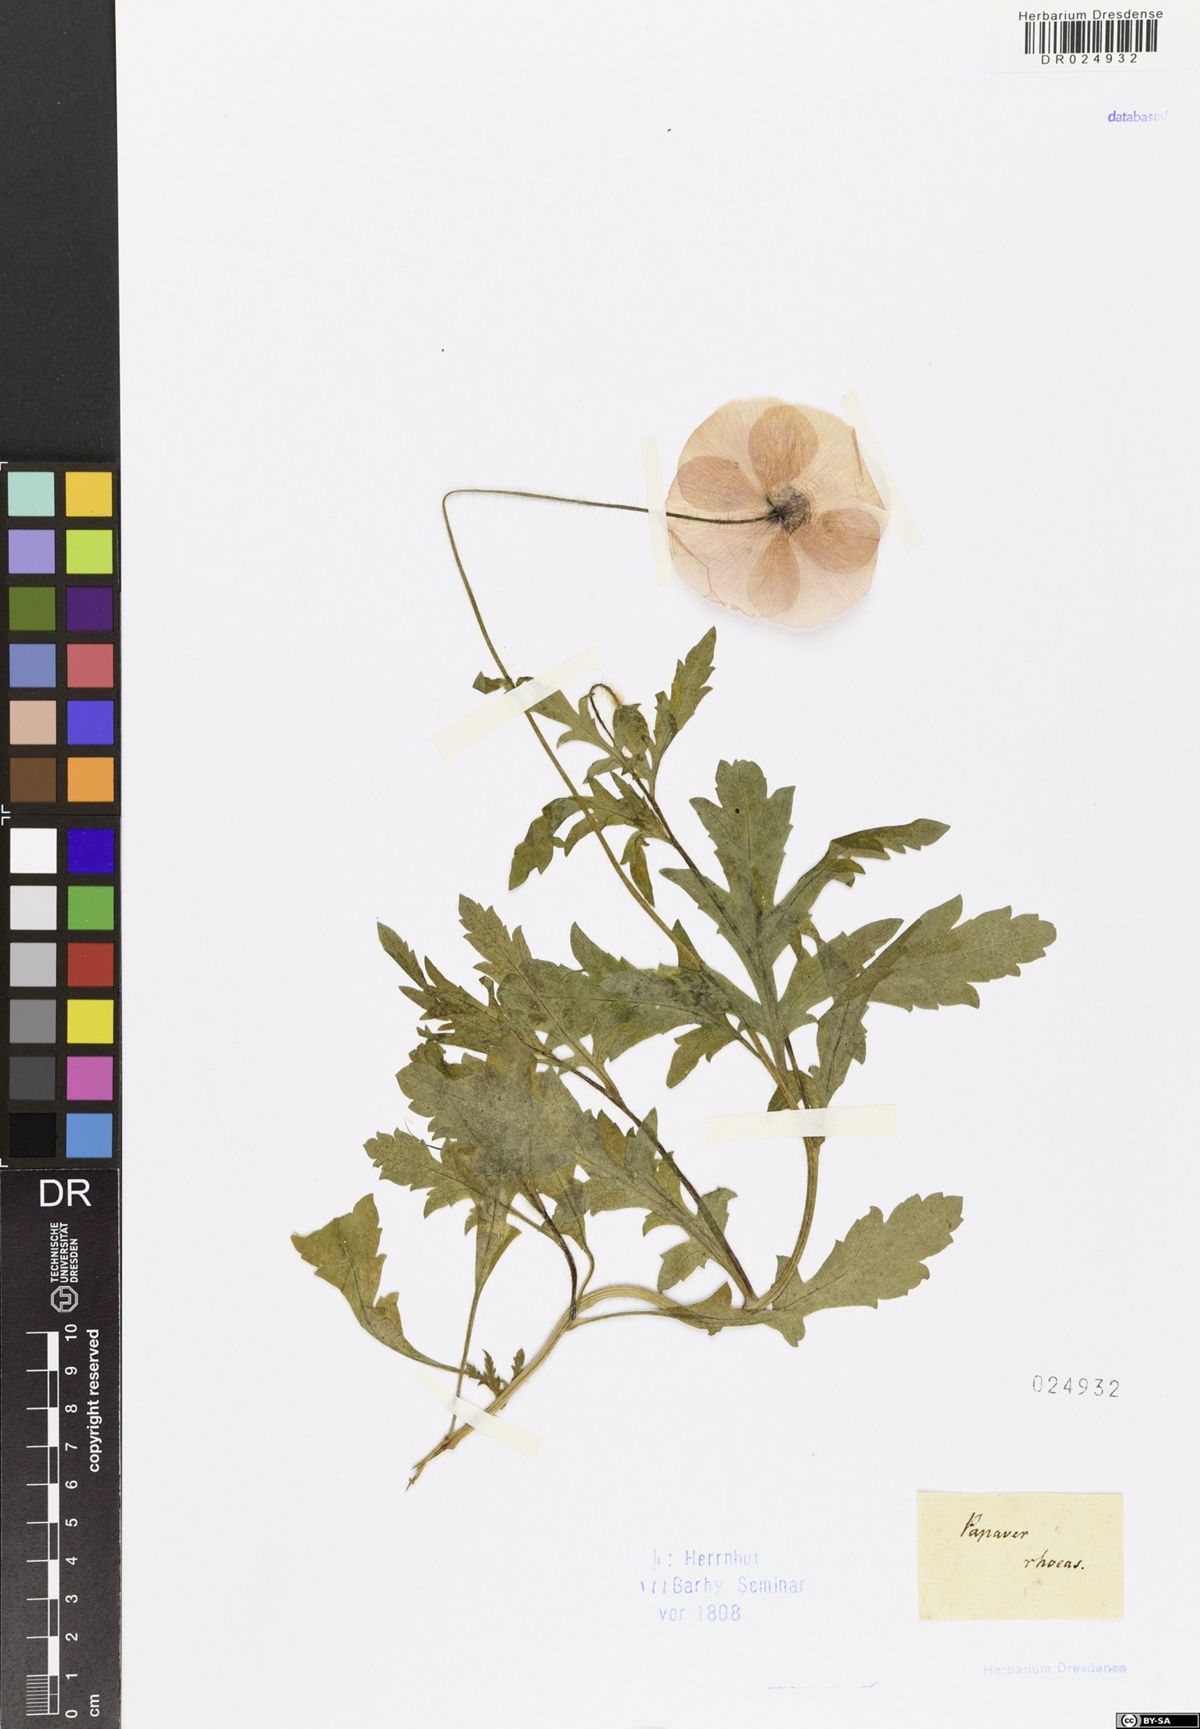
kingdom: Plantae
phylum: Tracheophyta
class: Magnoliopsida
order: Ranunculales
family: Papaveraceae
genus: Papaver
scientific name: Papaver rhoeas
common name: Corn poppy
